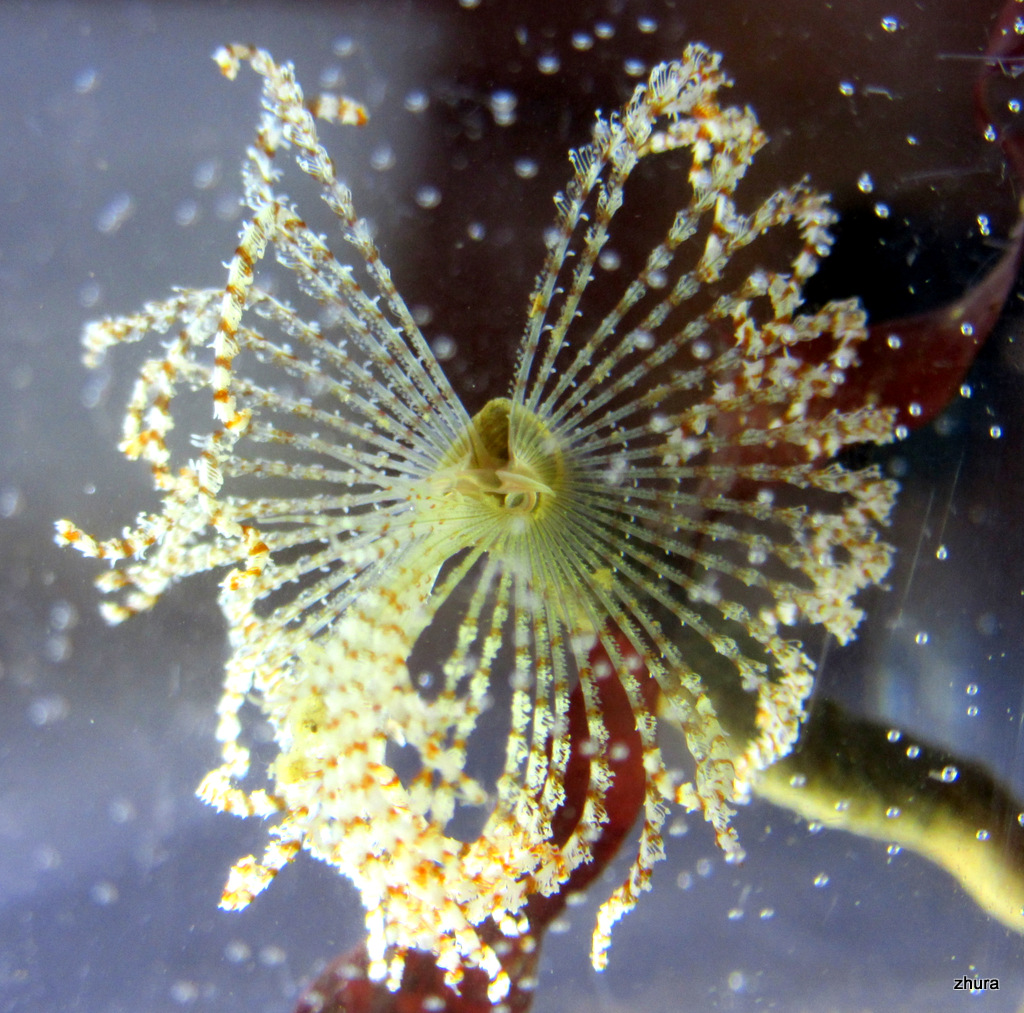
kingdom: Animalia
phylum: Annelida
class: Polychaeta
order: Sabellida
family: Sabellidae
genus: Branchiomma
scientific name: Branchiomma arcticum
